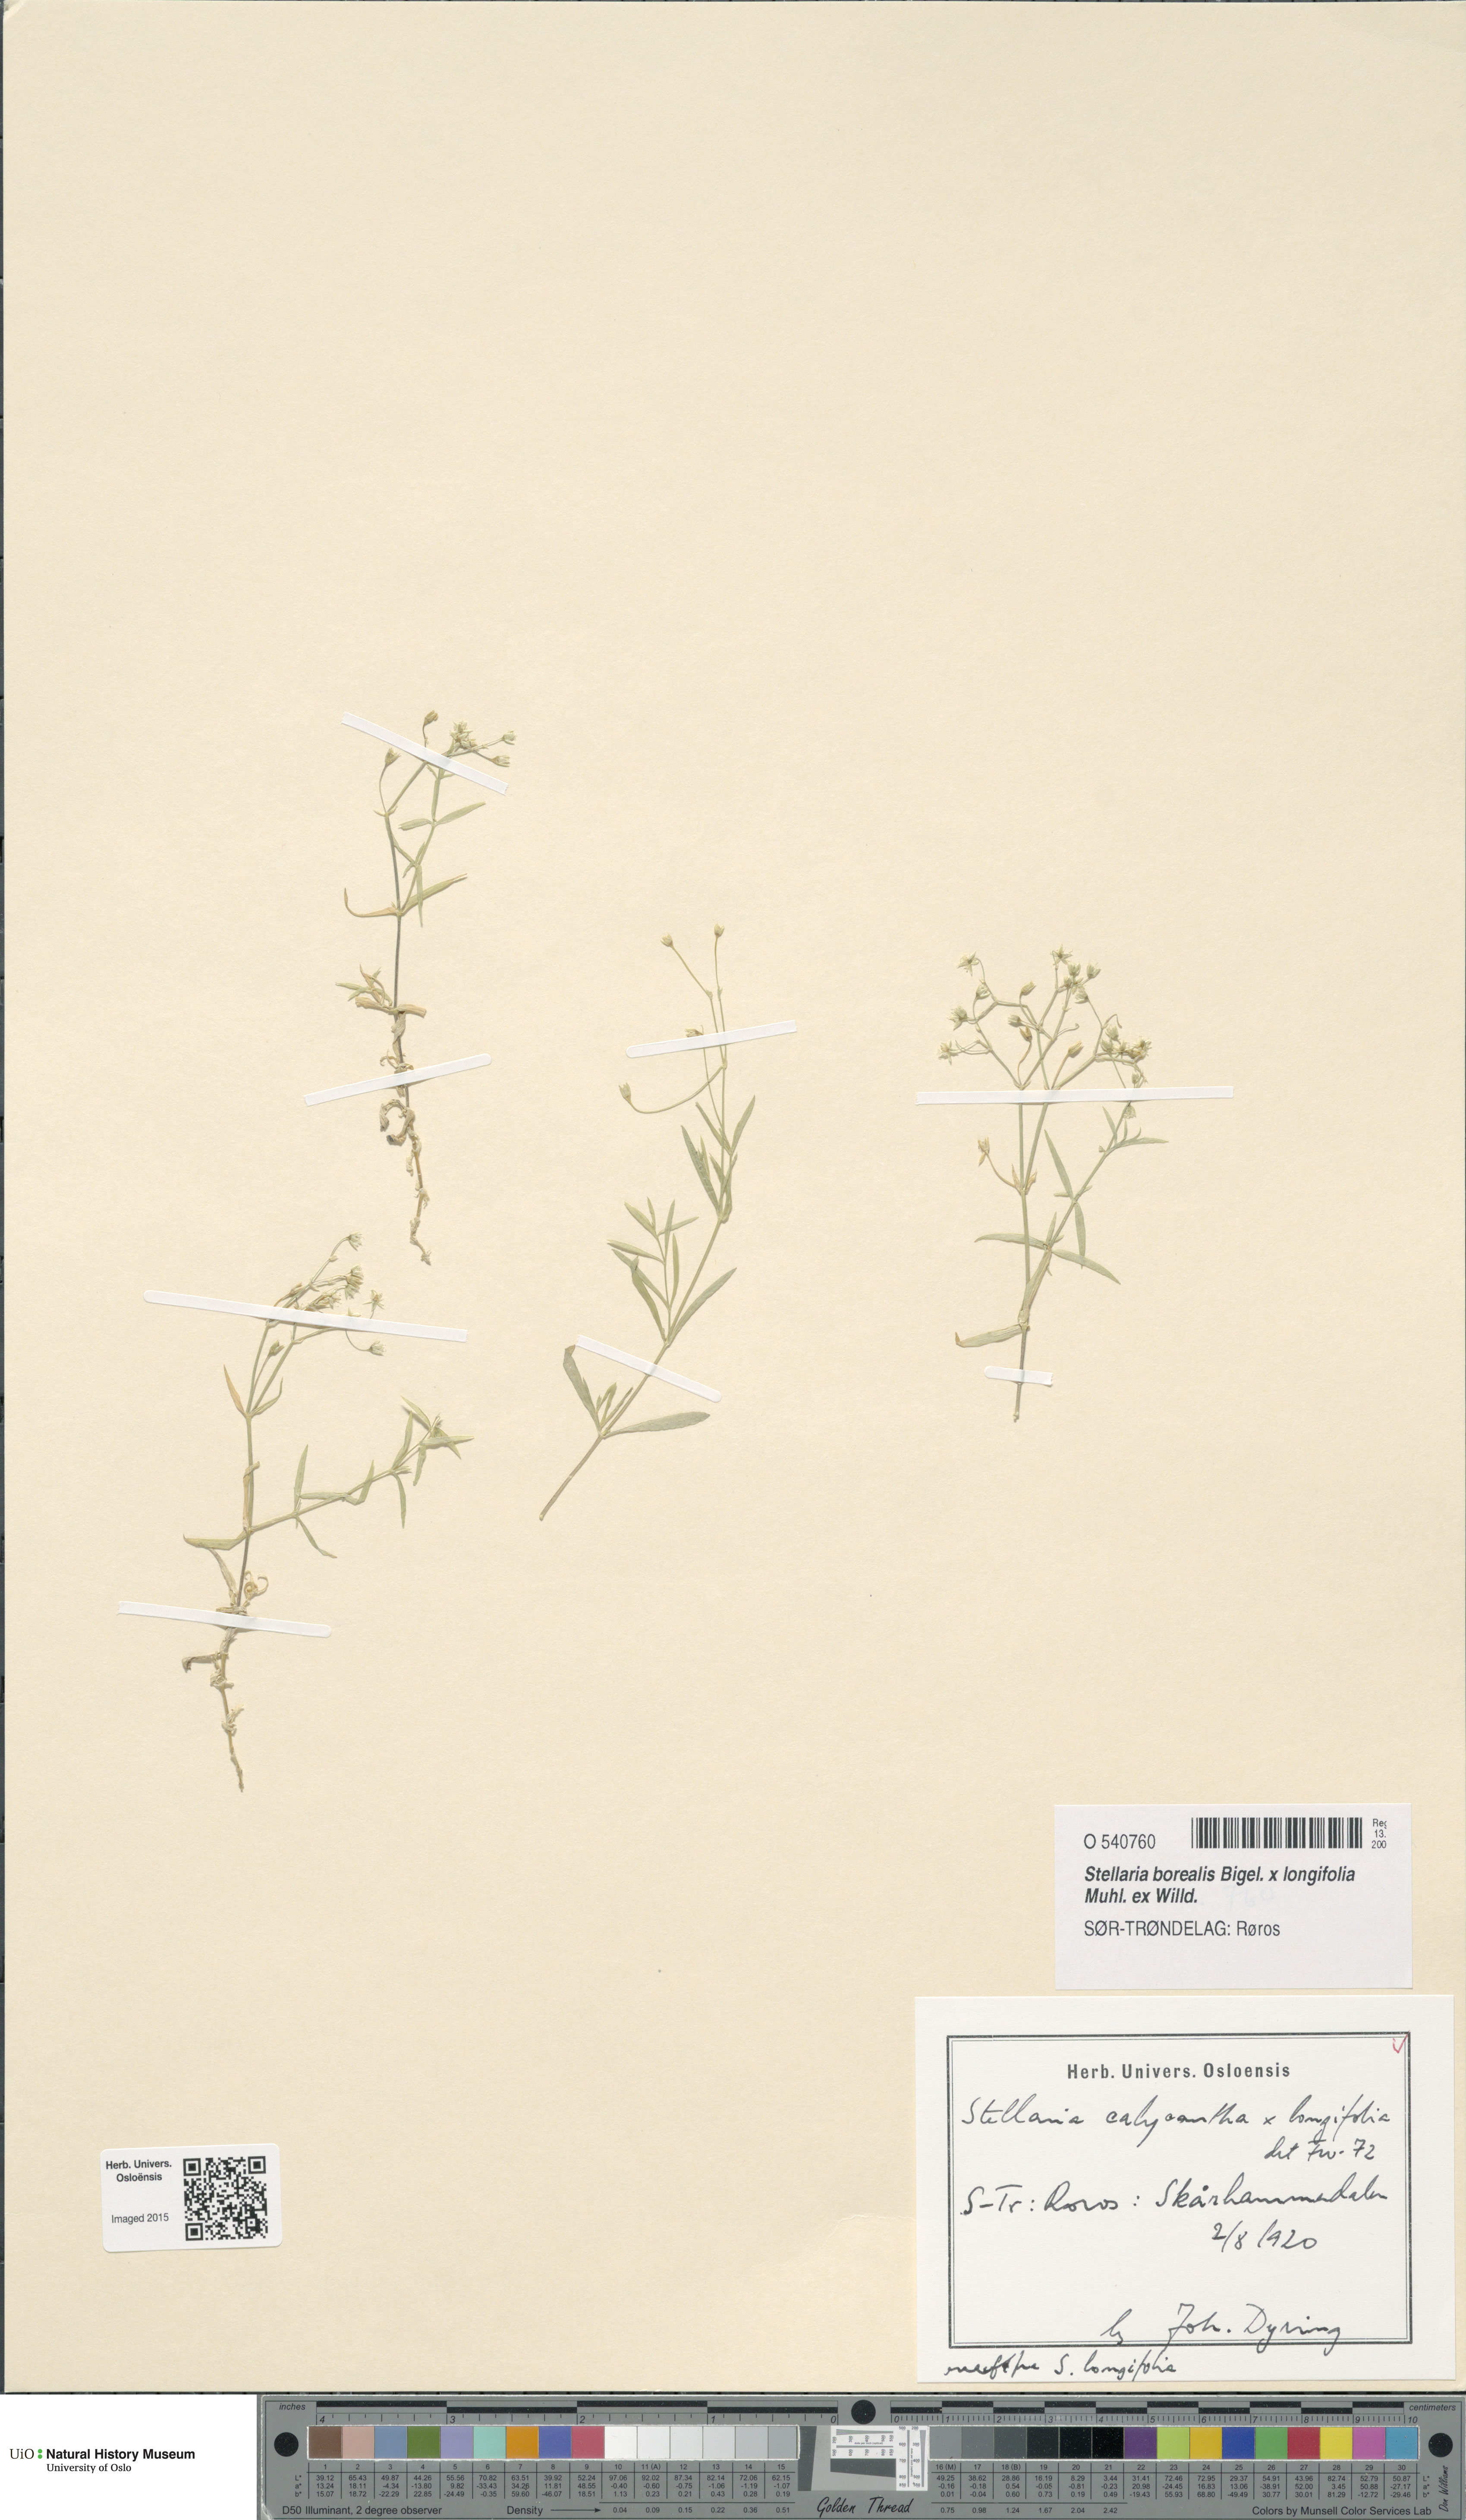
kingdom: Plantae
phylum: Tracheophyta
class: Magnoliopsida
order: Caryophyllales
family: Caryophyllaceae
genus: Stellaria
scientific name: Stellaria
